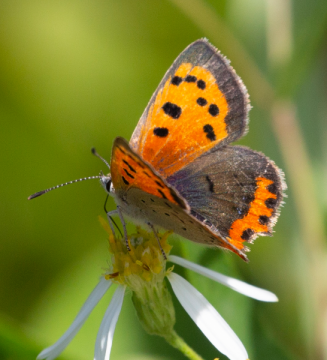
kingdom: Animalia
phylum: Arthropoda
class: Insecta
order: Lepidoptera
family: Lycaenidae
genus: Lycaena
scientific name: Lycaena phlaeas
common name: American Copper
